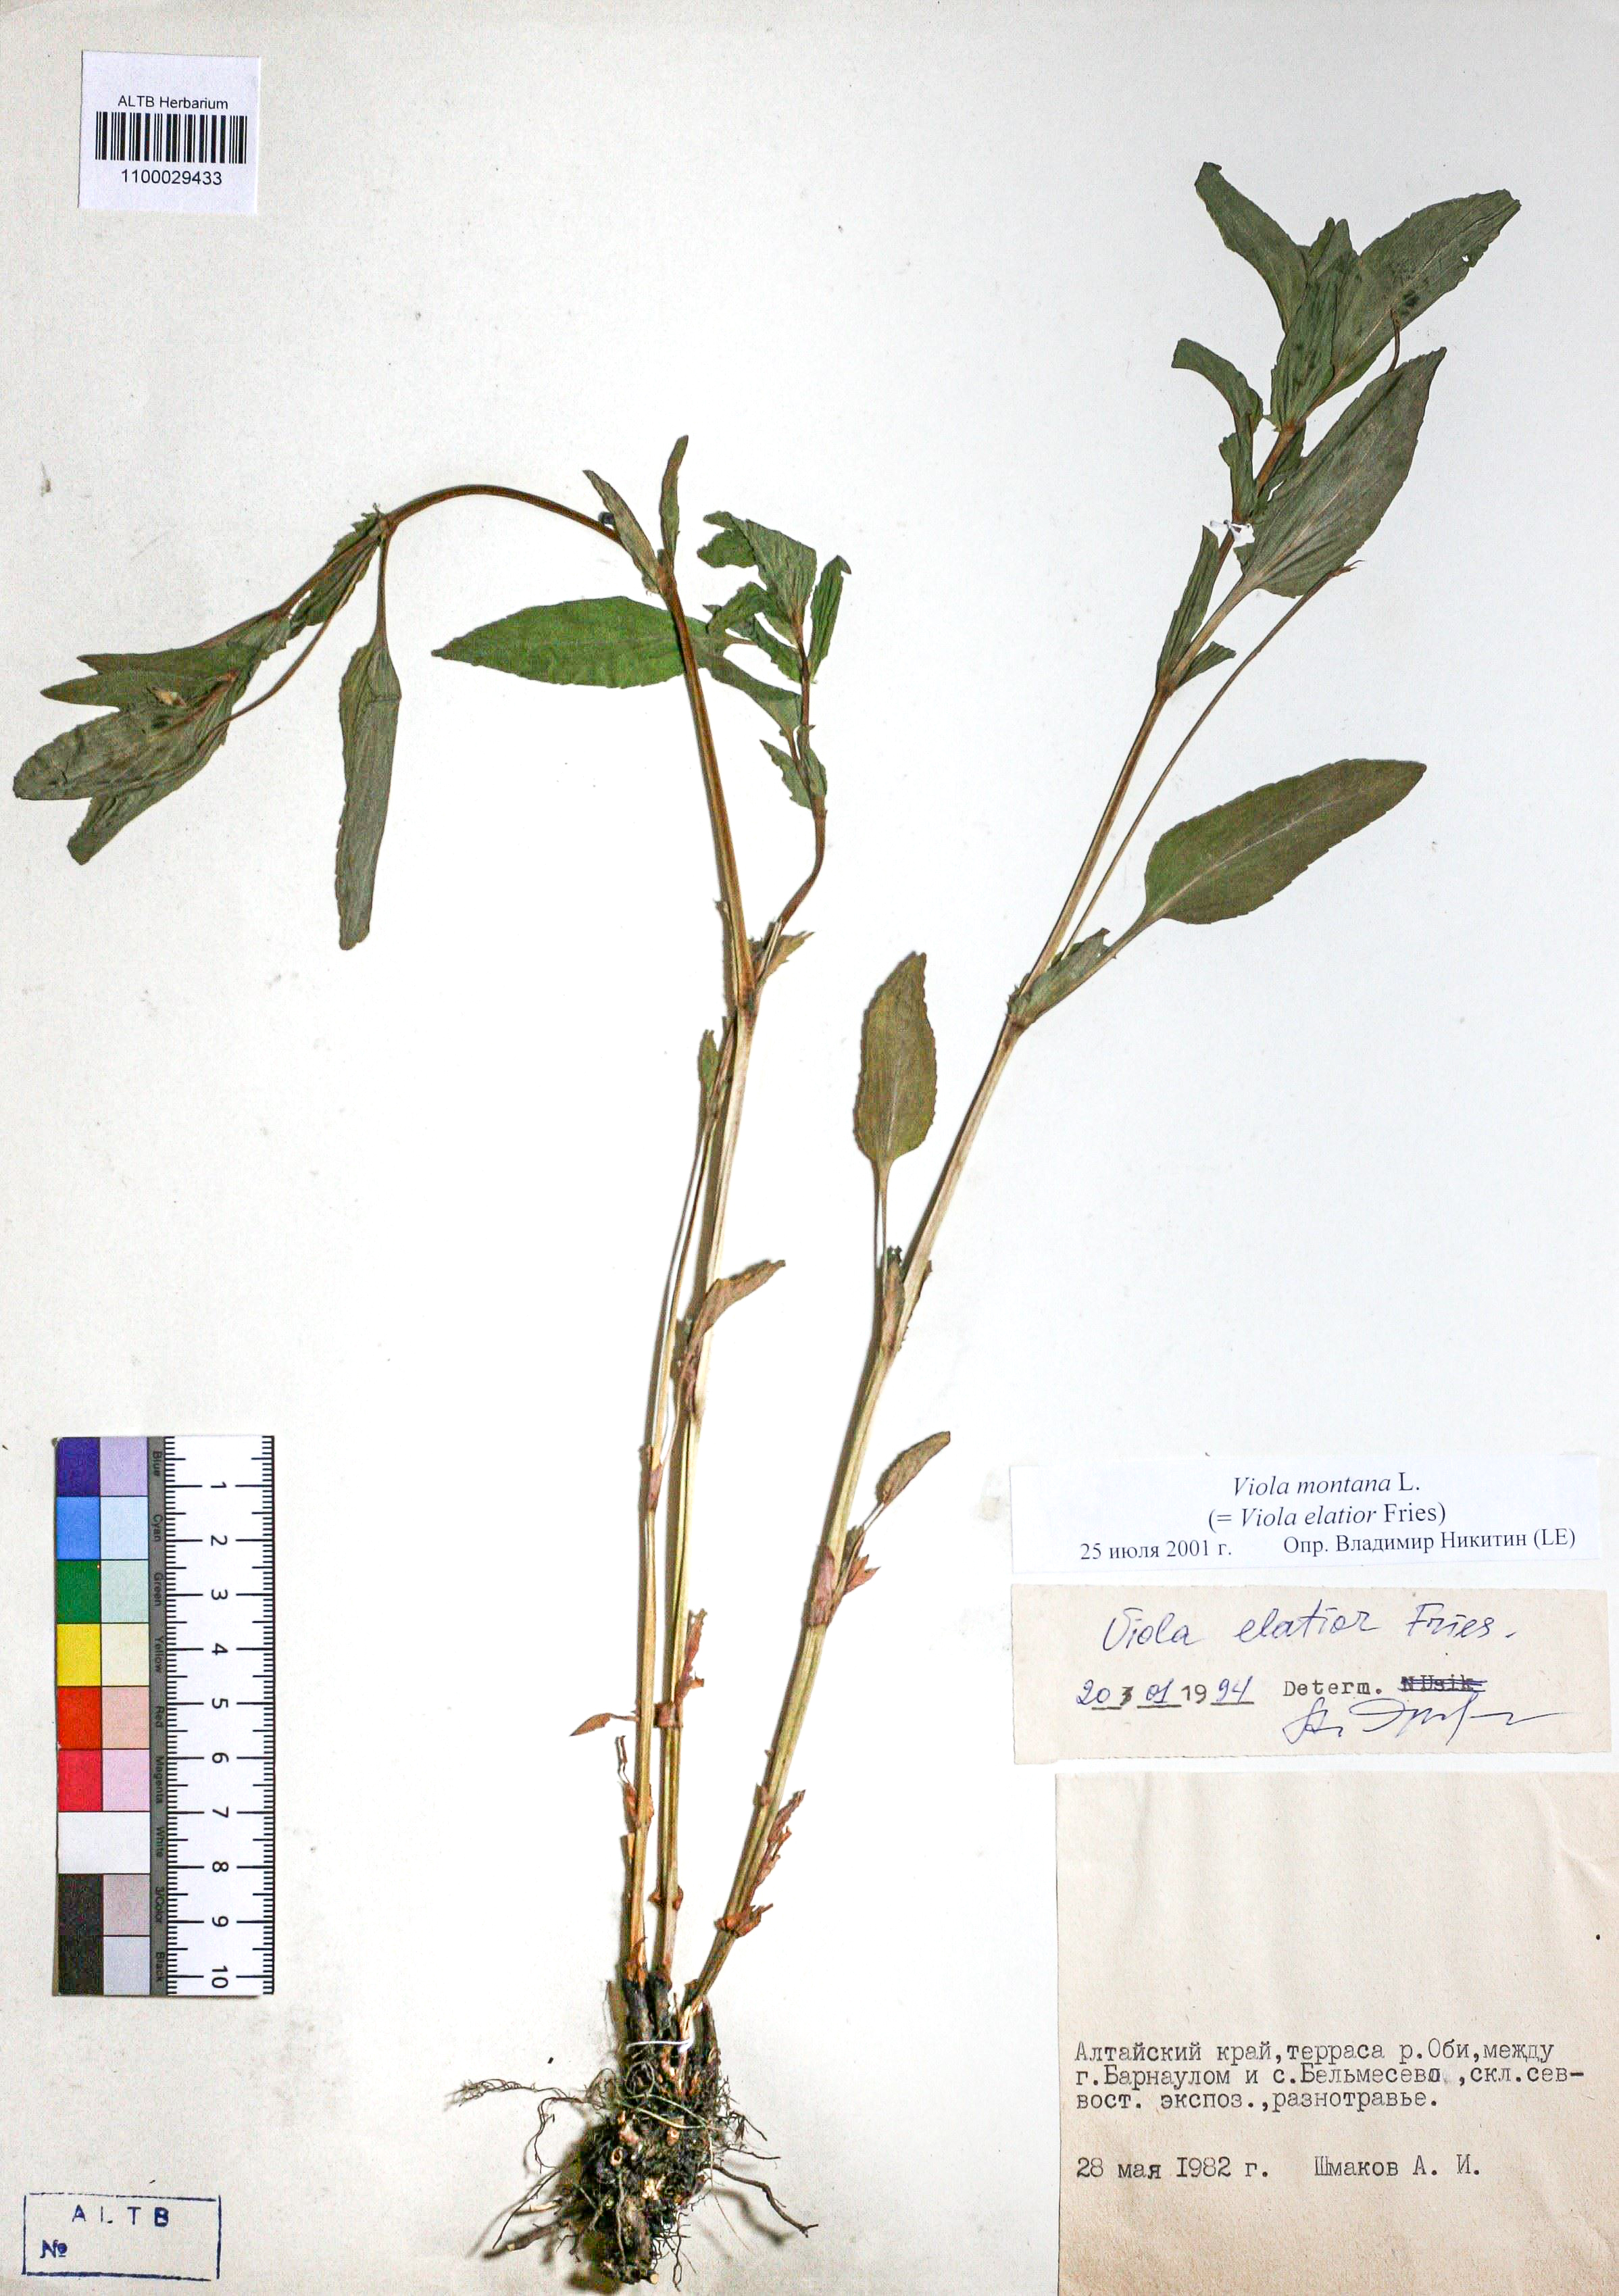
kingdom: Plantae
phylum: Tracheophyta
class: Magnoliopsida
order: Malpighiales
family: Violaceae
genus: Viola
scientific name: Viola ruppii
